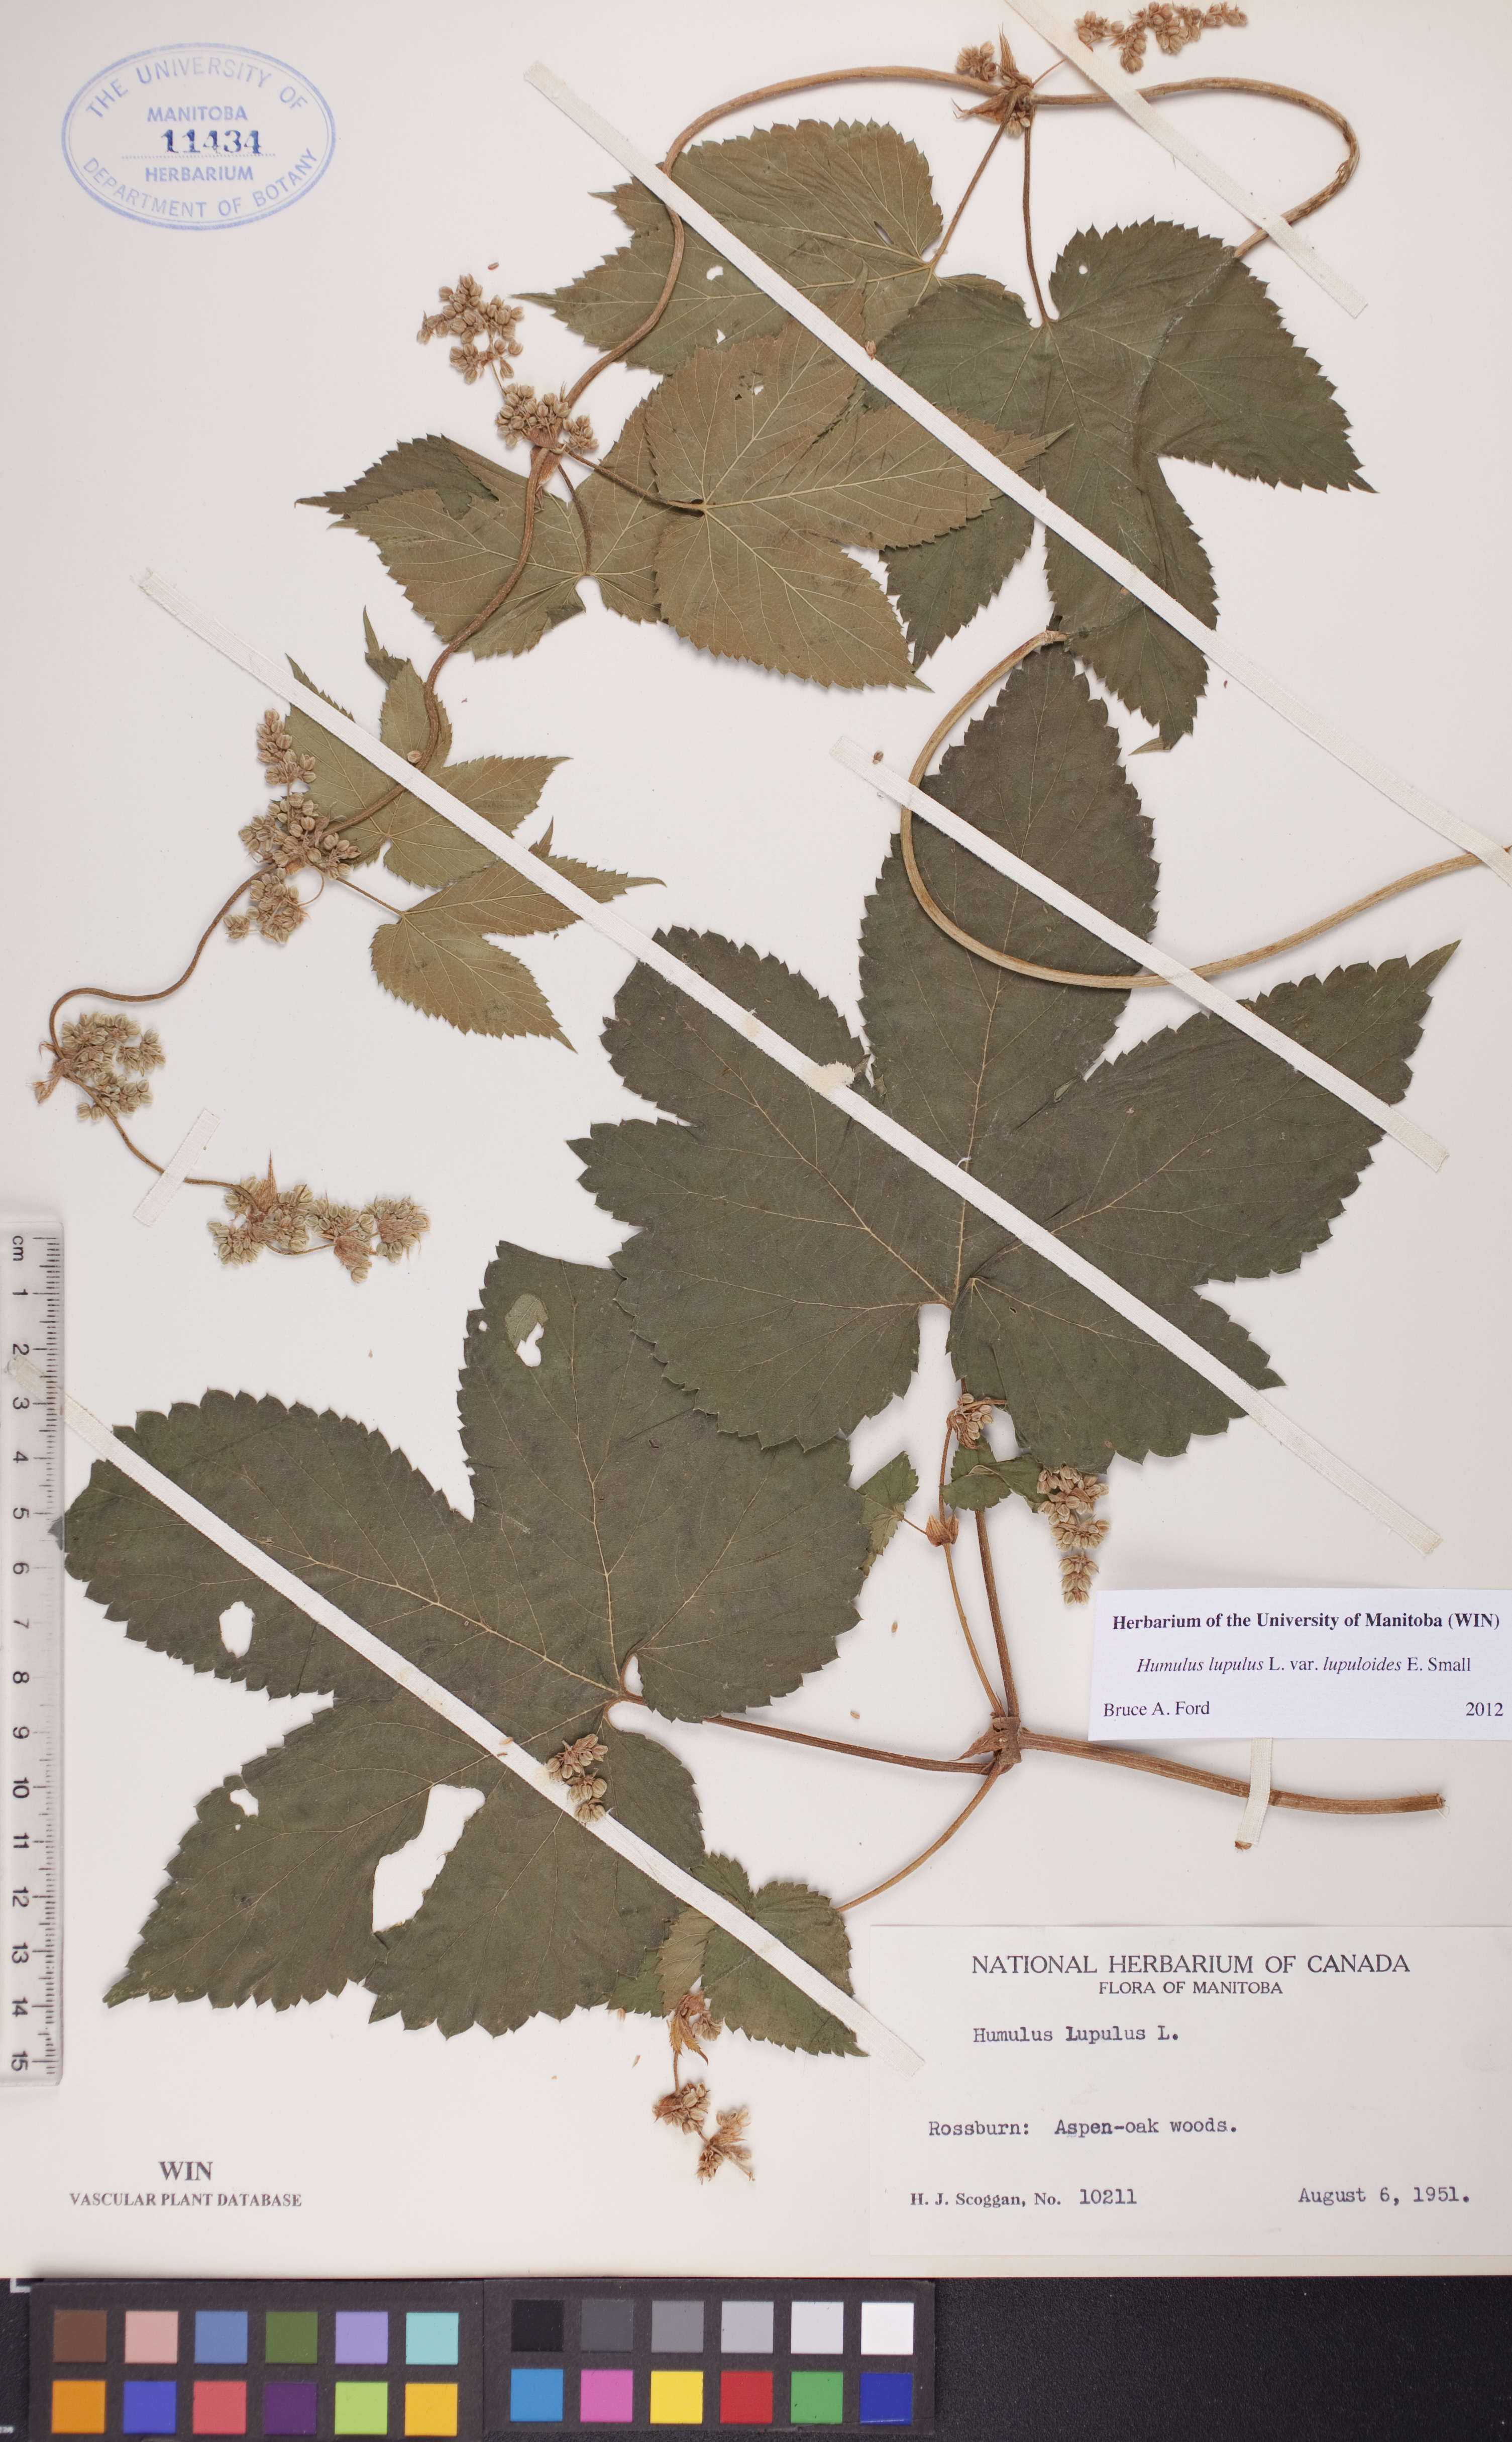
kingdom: Plantae
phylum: Tracheophyta
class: Magnoliopsida
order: Rosales
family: Cannabaceae
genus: Humulus
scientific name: Humulus americanus
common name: American hops
